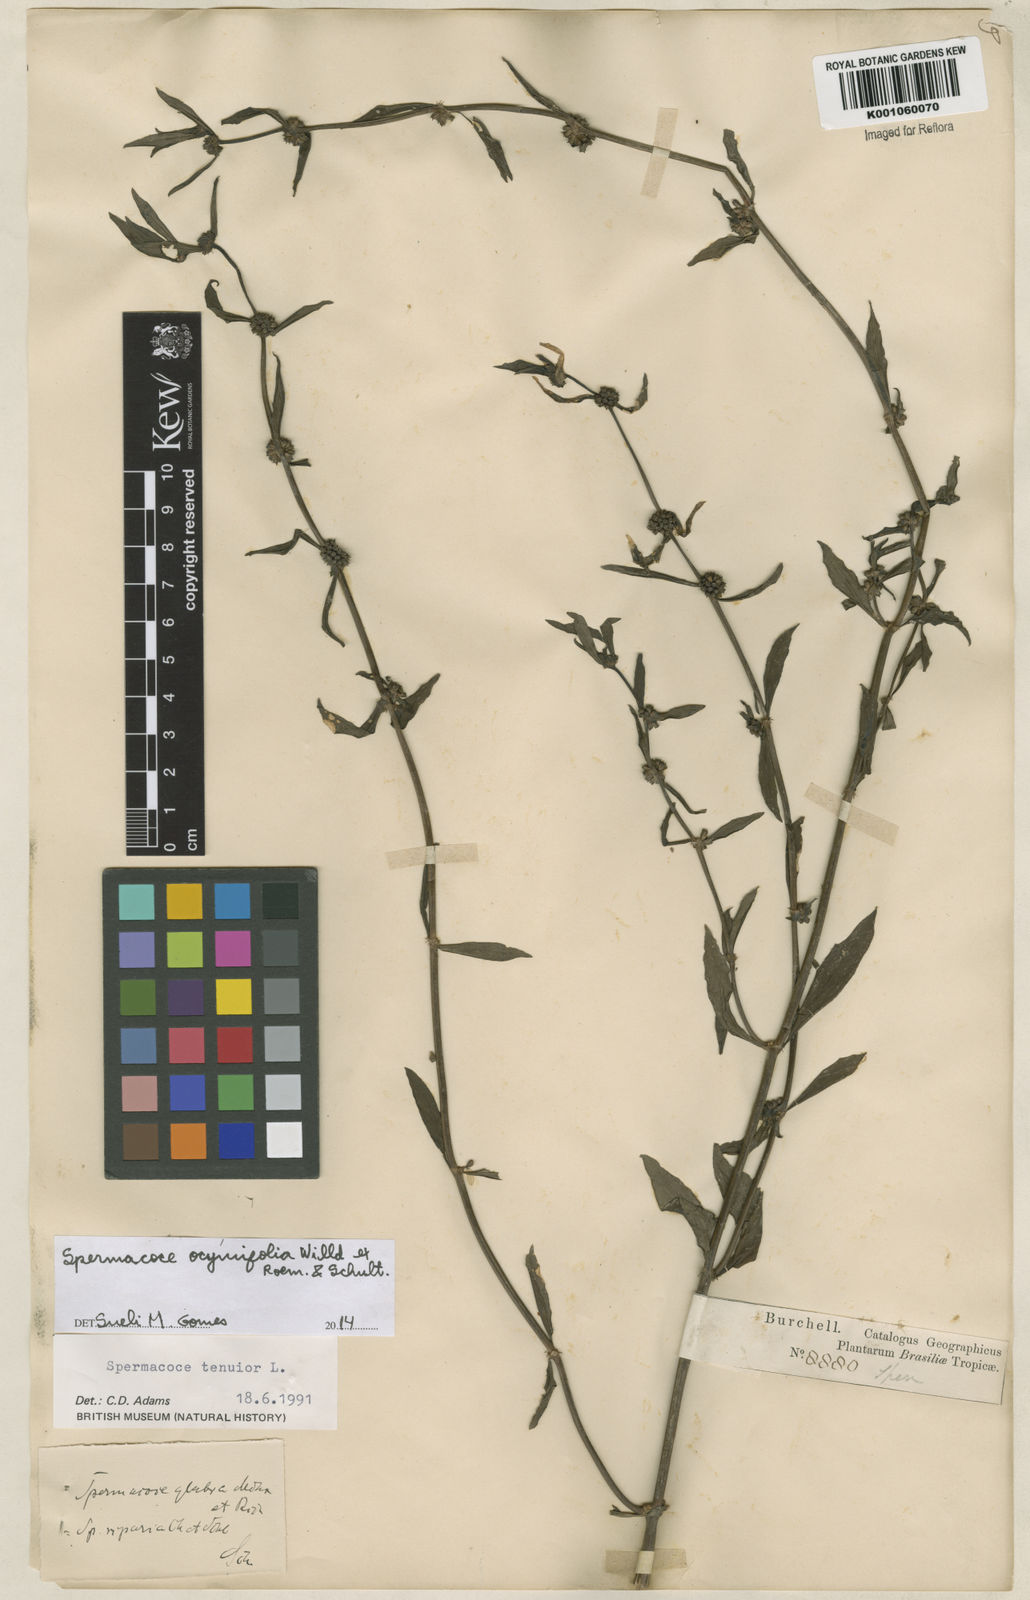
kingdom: Plantae
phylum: Tracheophyta
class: Magnoliopsida
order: Gentianales
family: Rubiaceae
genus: Spermacoce
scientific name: Spermacoce
